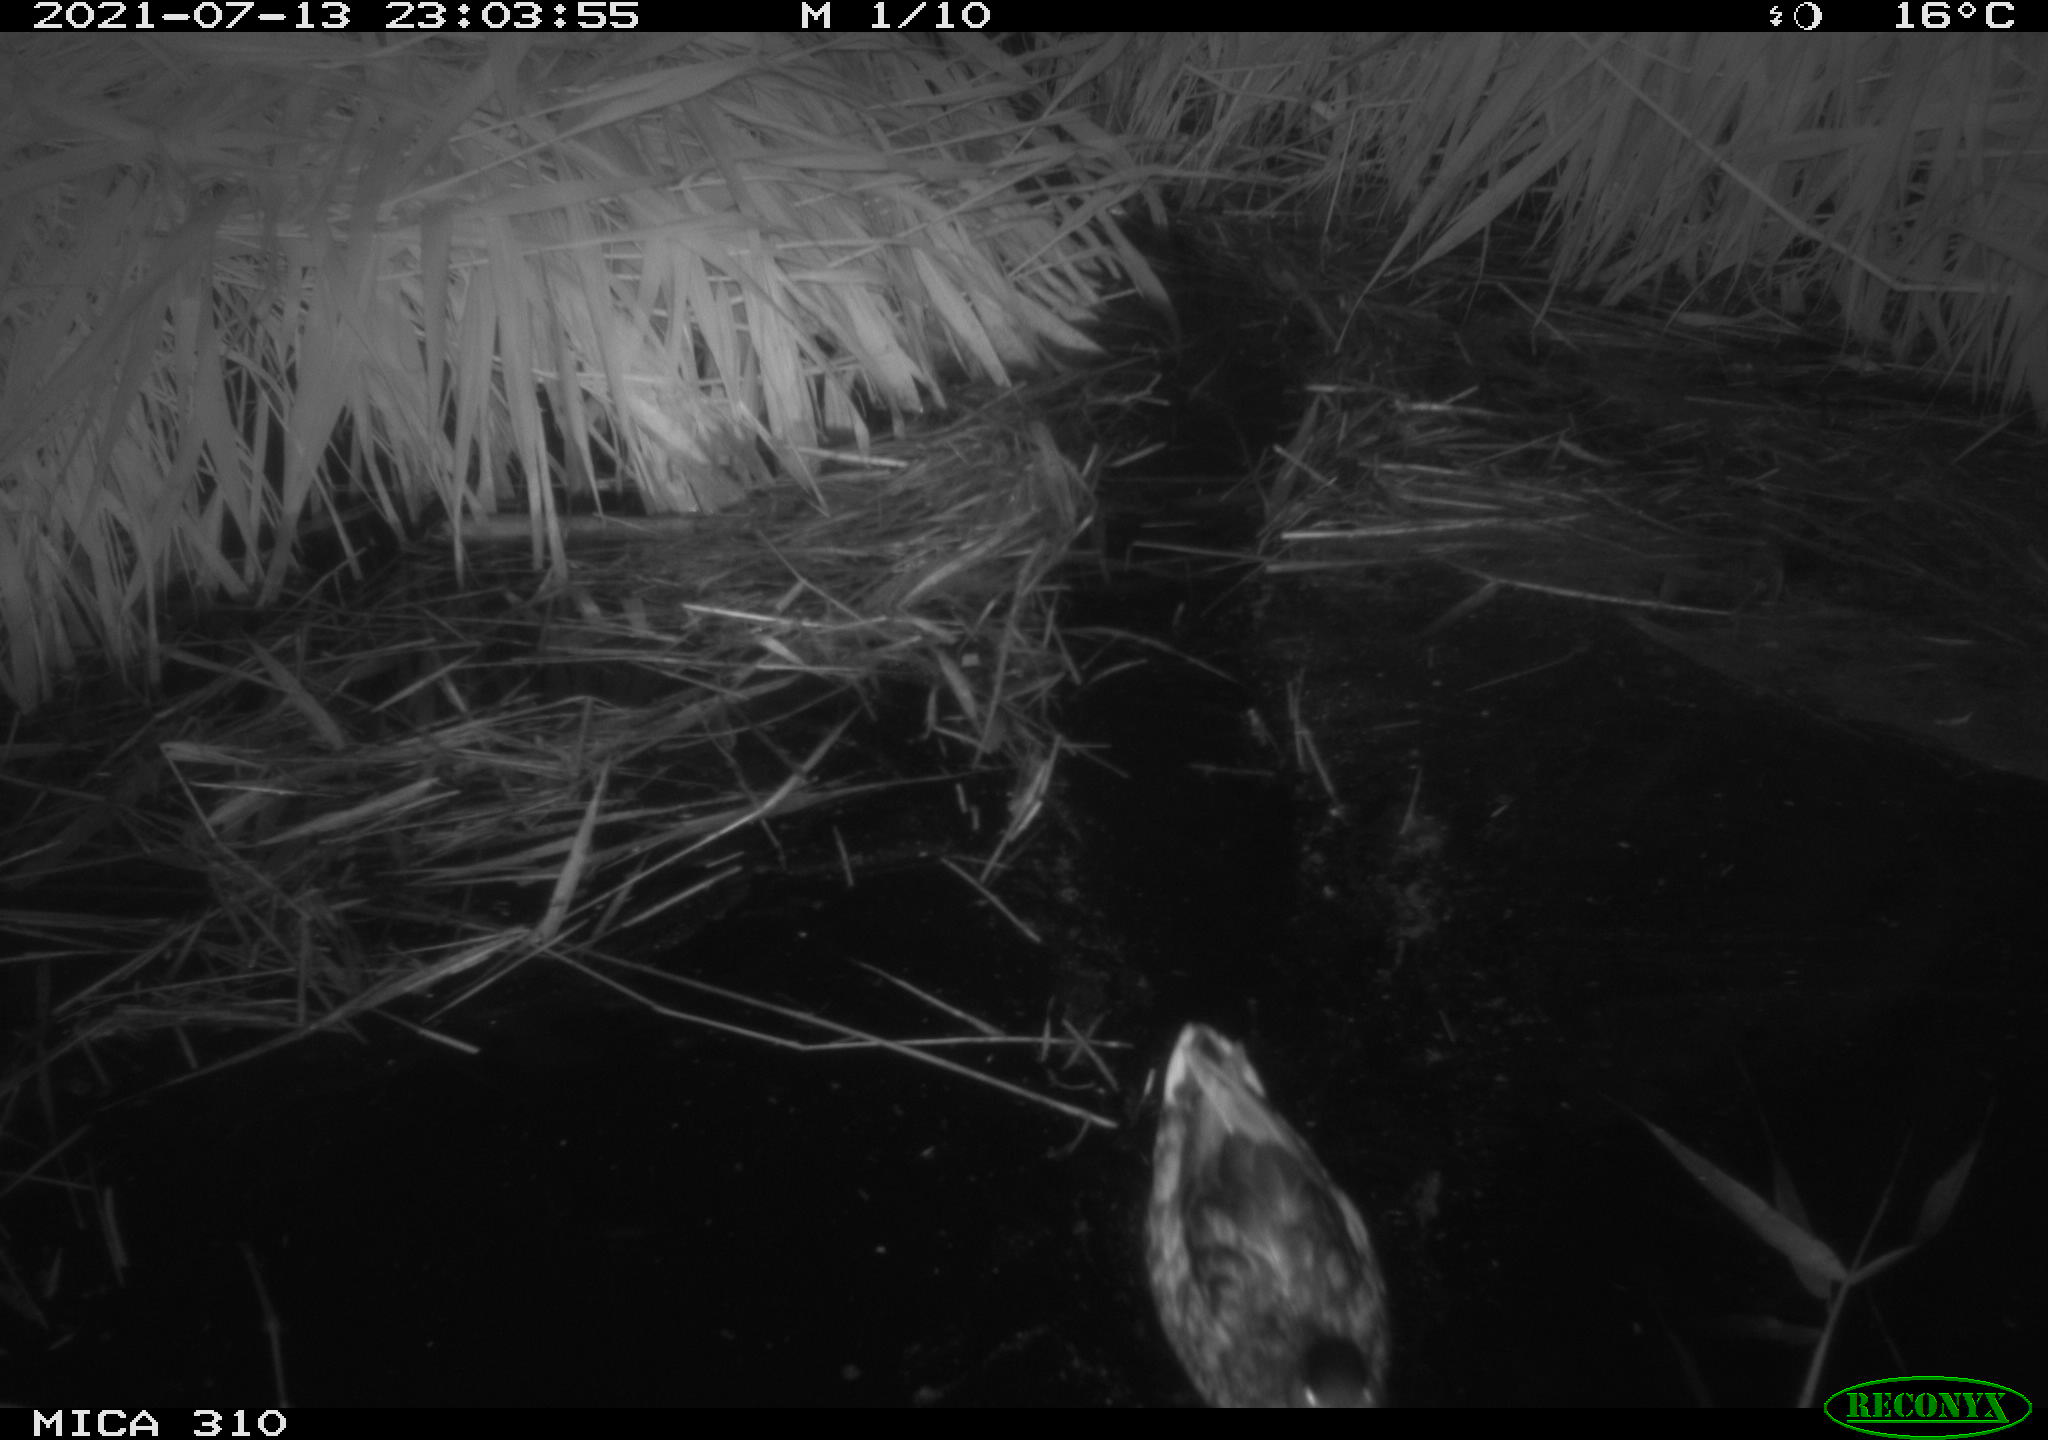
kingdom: Animalia
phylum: Chordata
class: Aves
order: Anseriformes
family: Anatidae
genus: Anas
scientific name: Anas platyrhynchos
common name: Mallard
